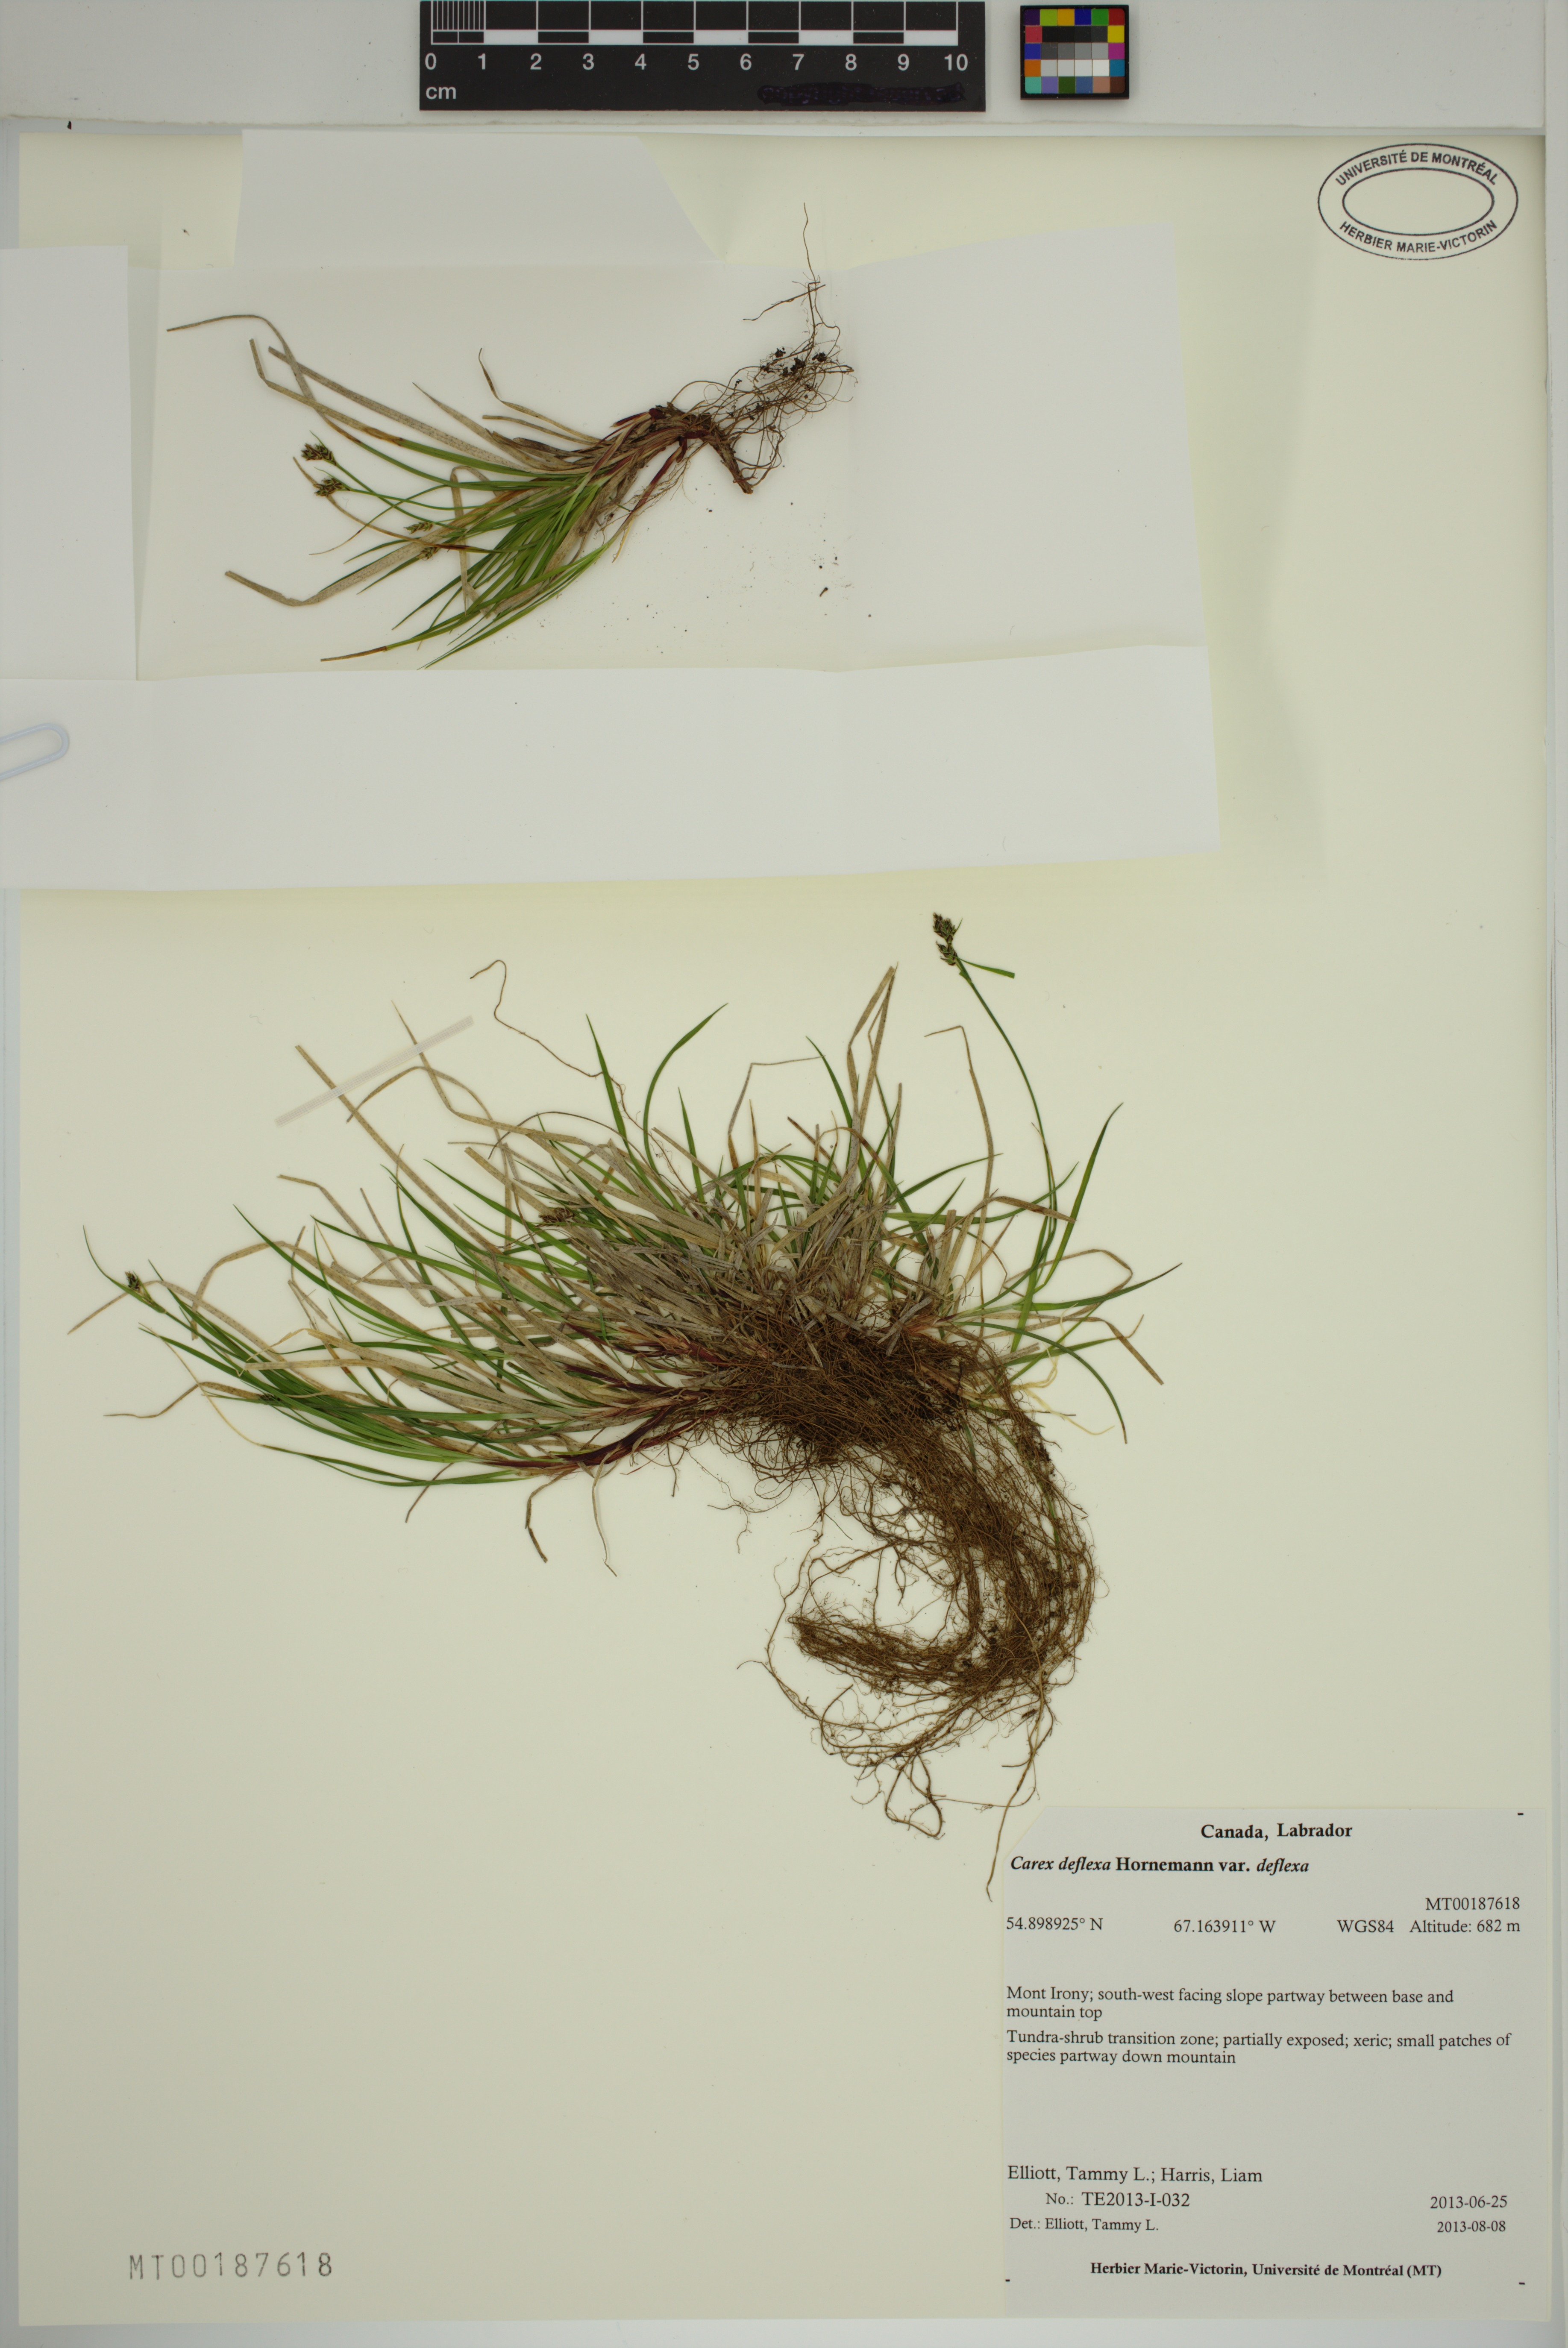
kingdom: Plantae
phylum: Tracheophyta
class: Liliopsida
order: Poales
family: Cyperaceae
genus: Carex
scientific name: Carex deflexa
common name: Bent northern sedge
